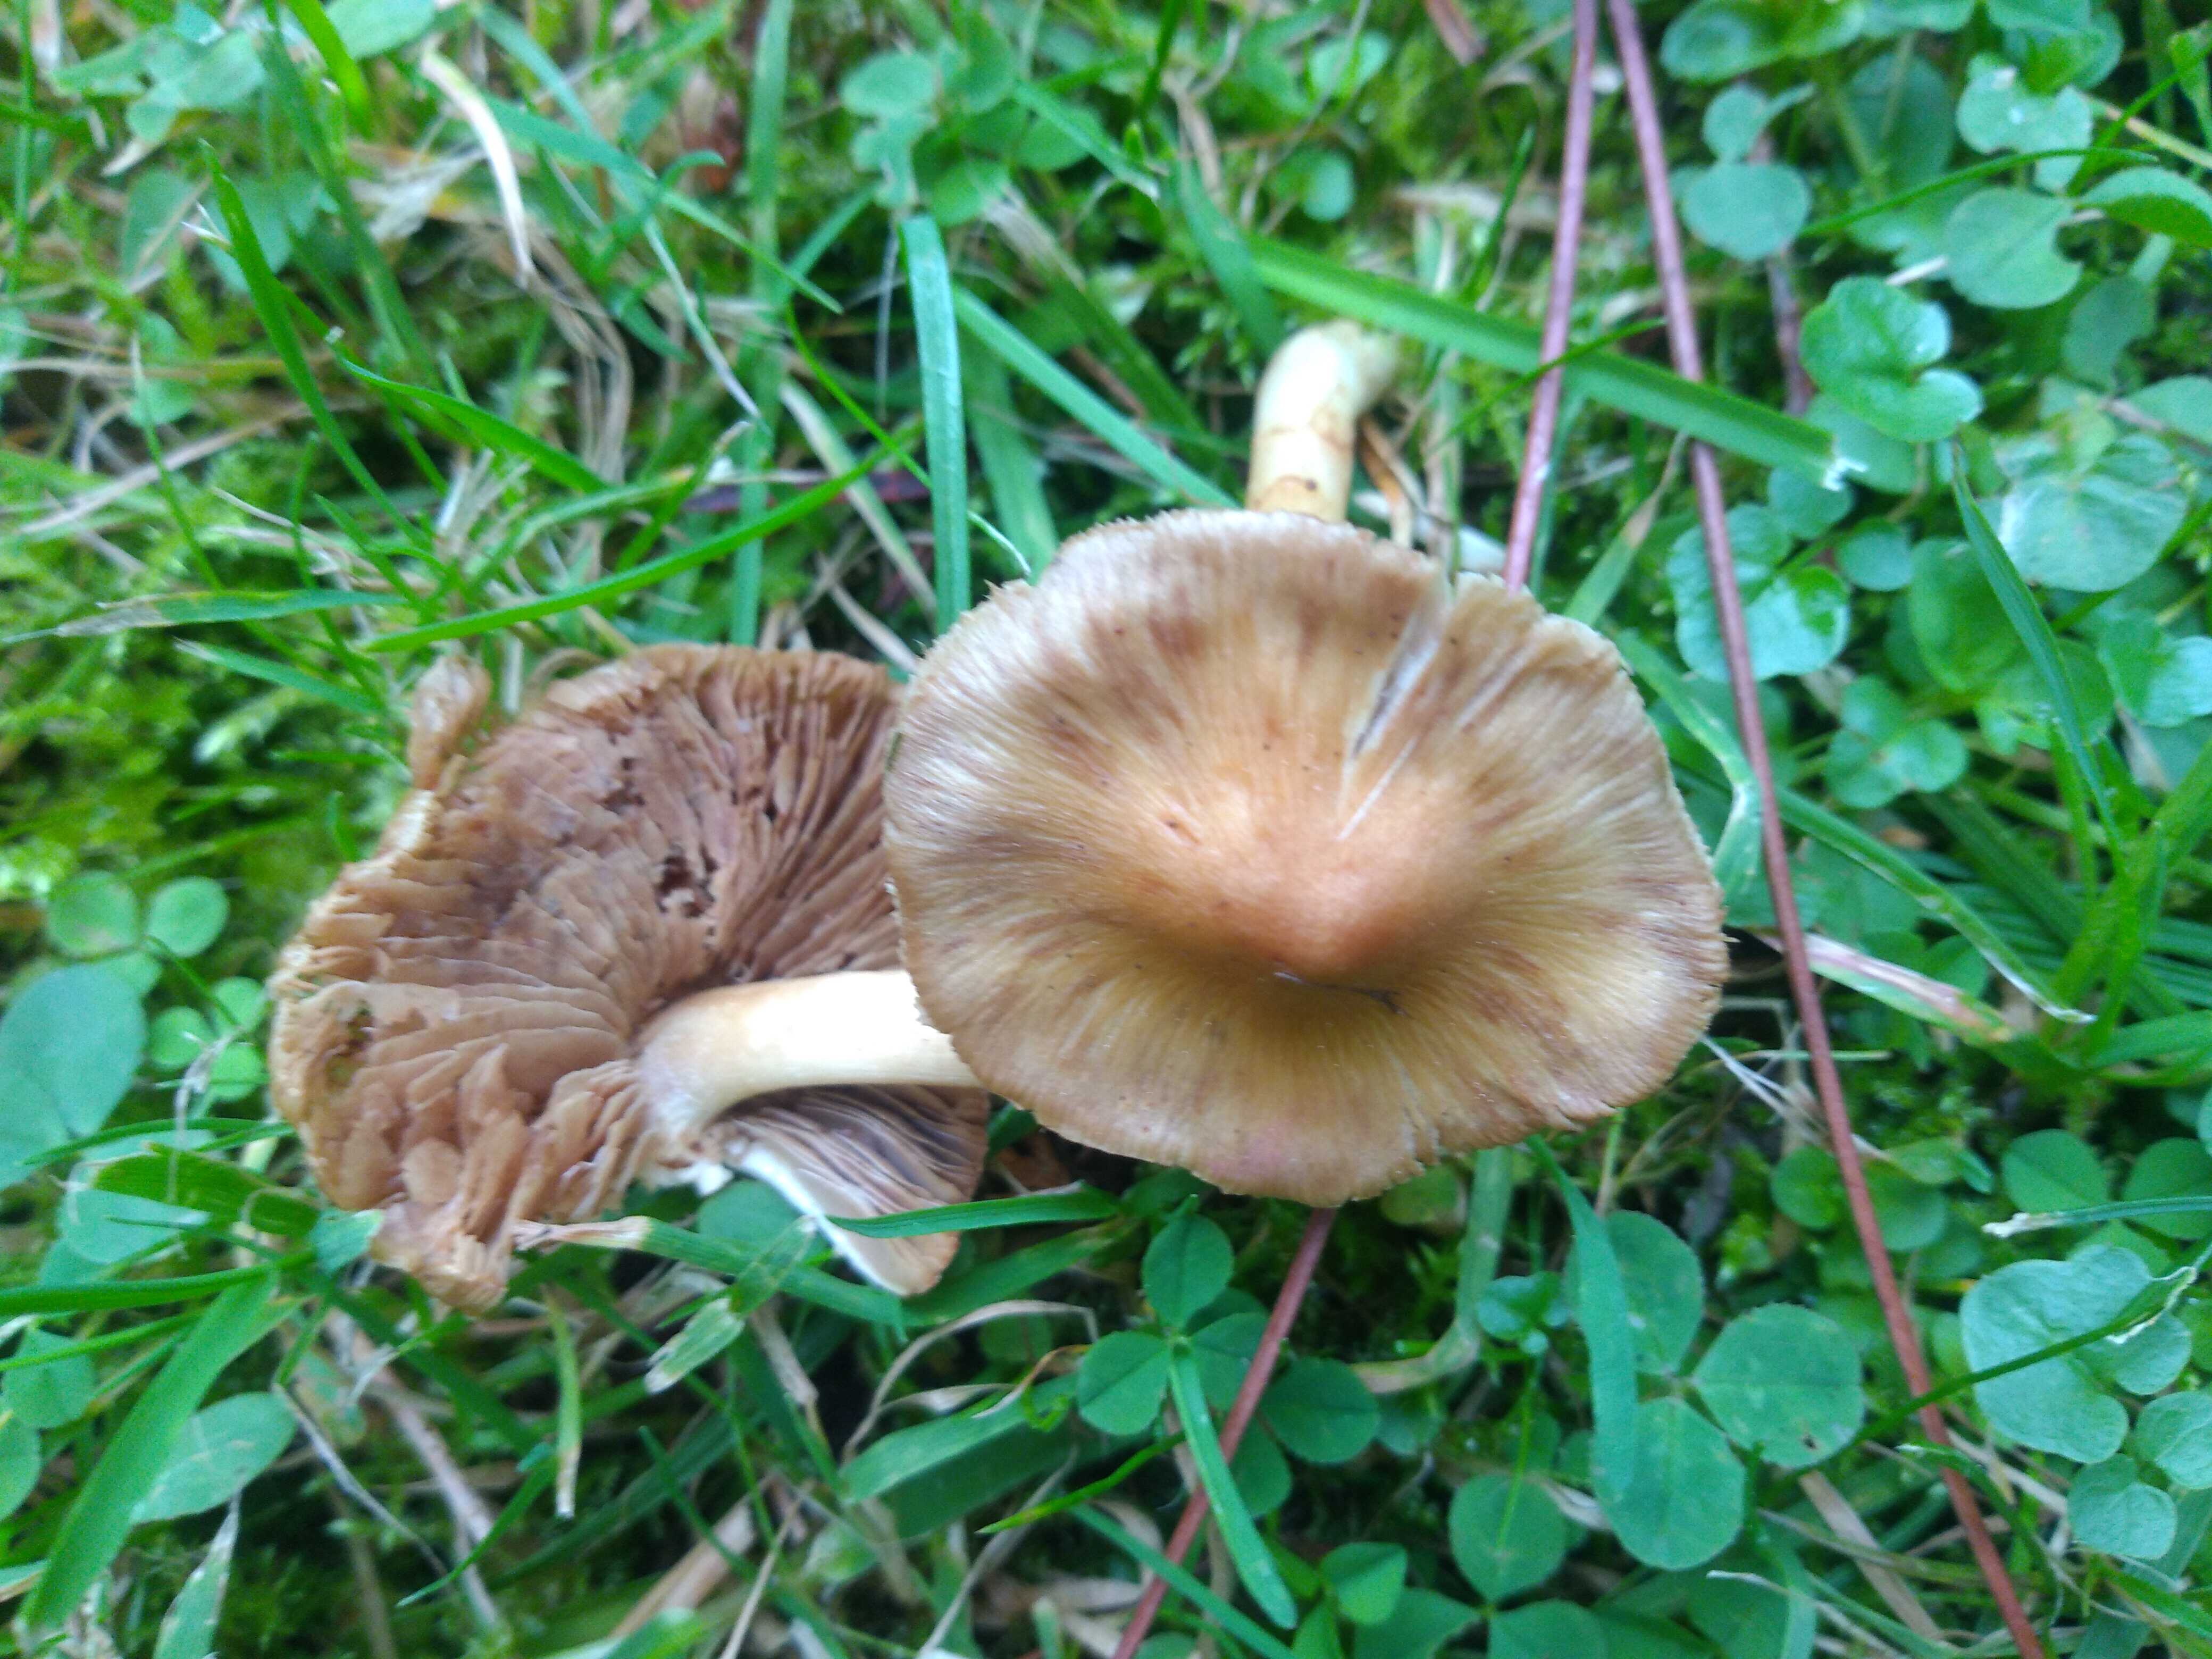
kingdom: Fungi
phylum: Basidiomycota
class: Agaricomycetes
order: Agaricales
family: Inocybaceae
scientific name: Inocybaceae
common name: trævlhatfamilien
